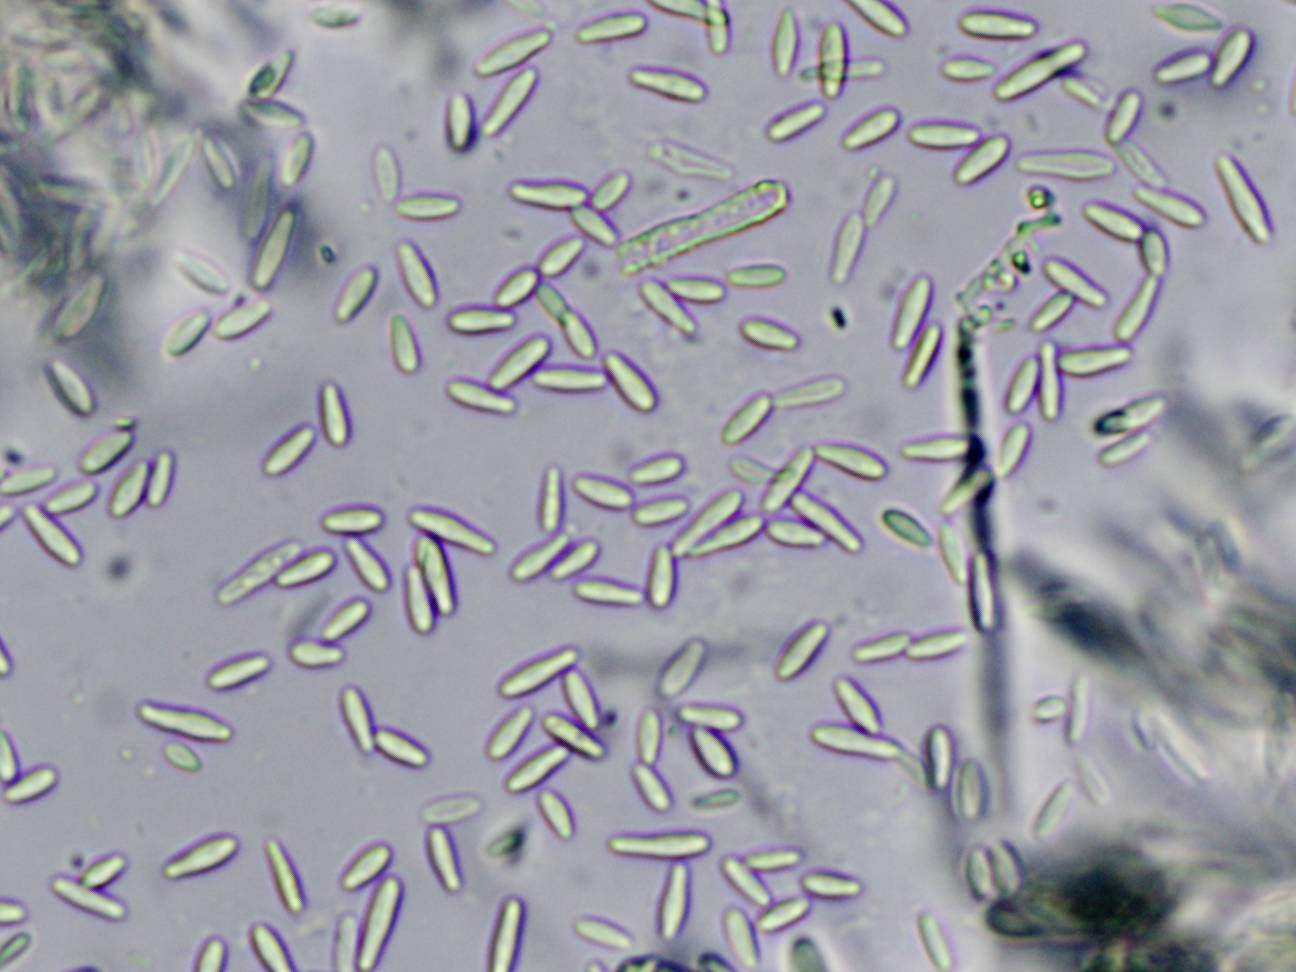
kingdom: Fungi
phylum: Ascomycota
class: Leotiomycetes
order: Helotiales
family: Lachnaceae
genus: Lachnellula
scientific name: Lachnellula subtilissima
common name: gran-frynseskive
